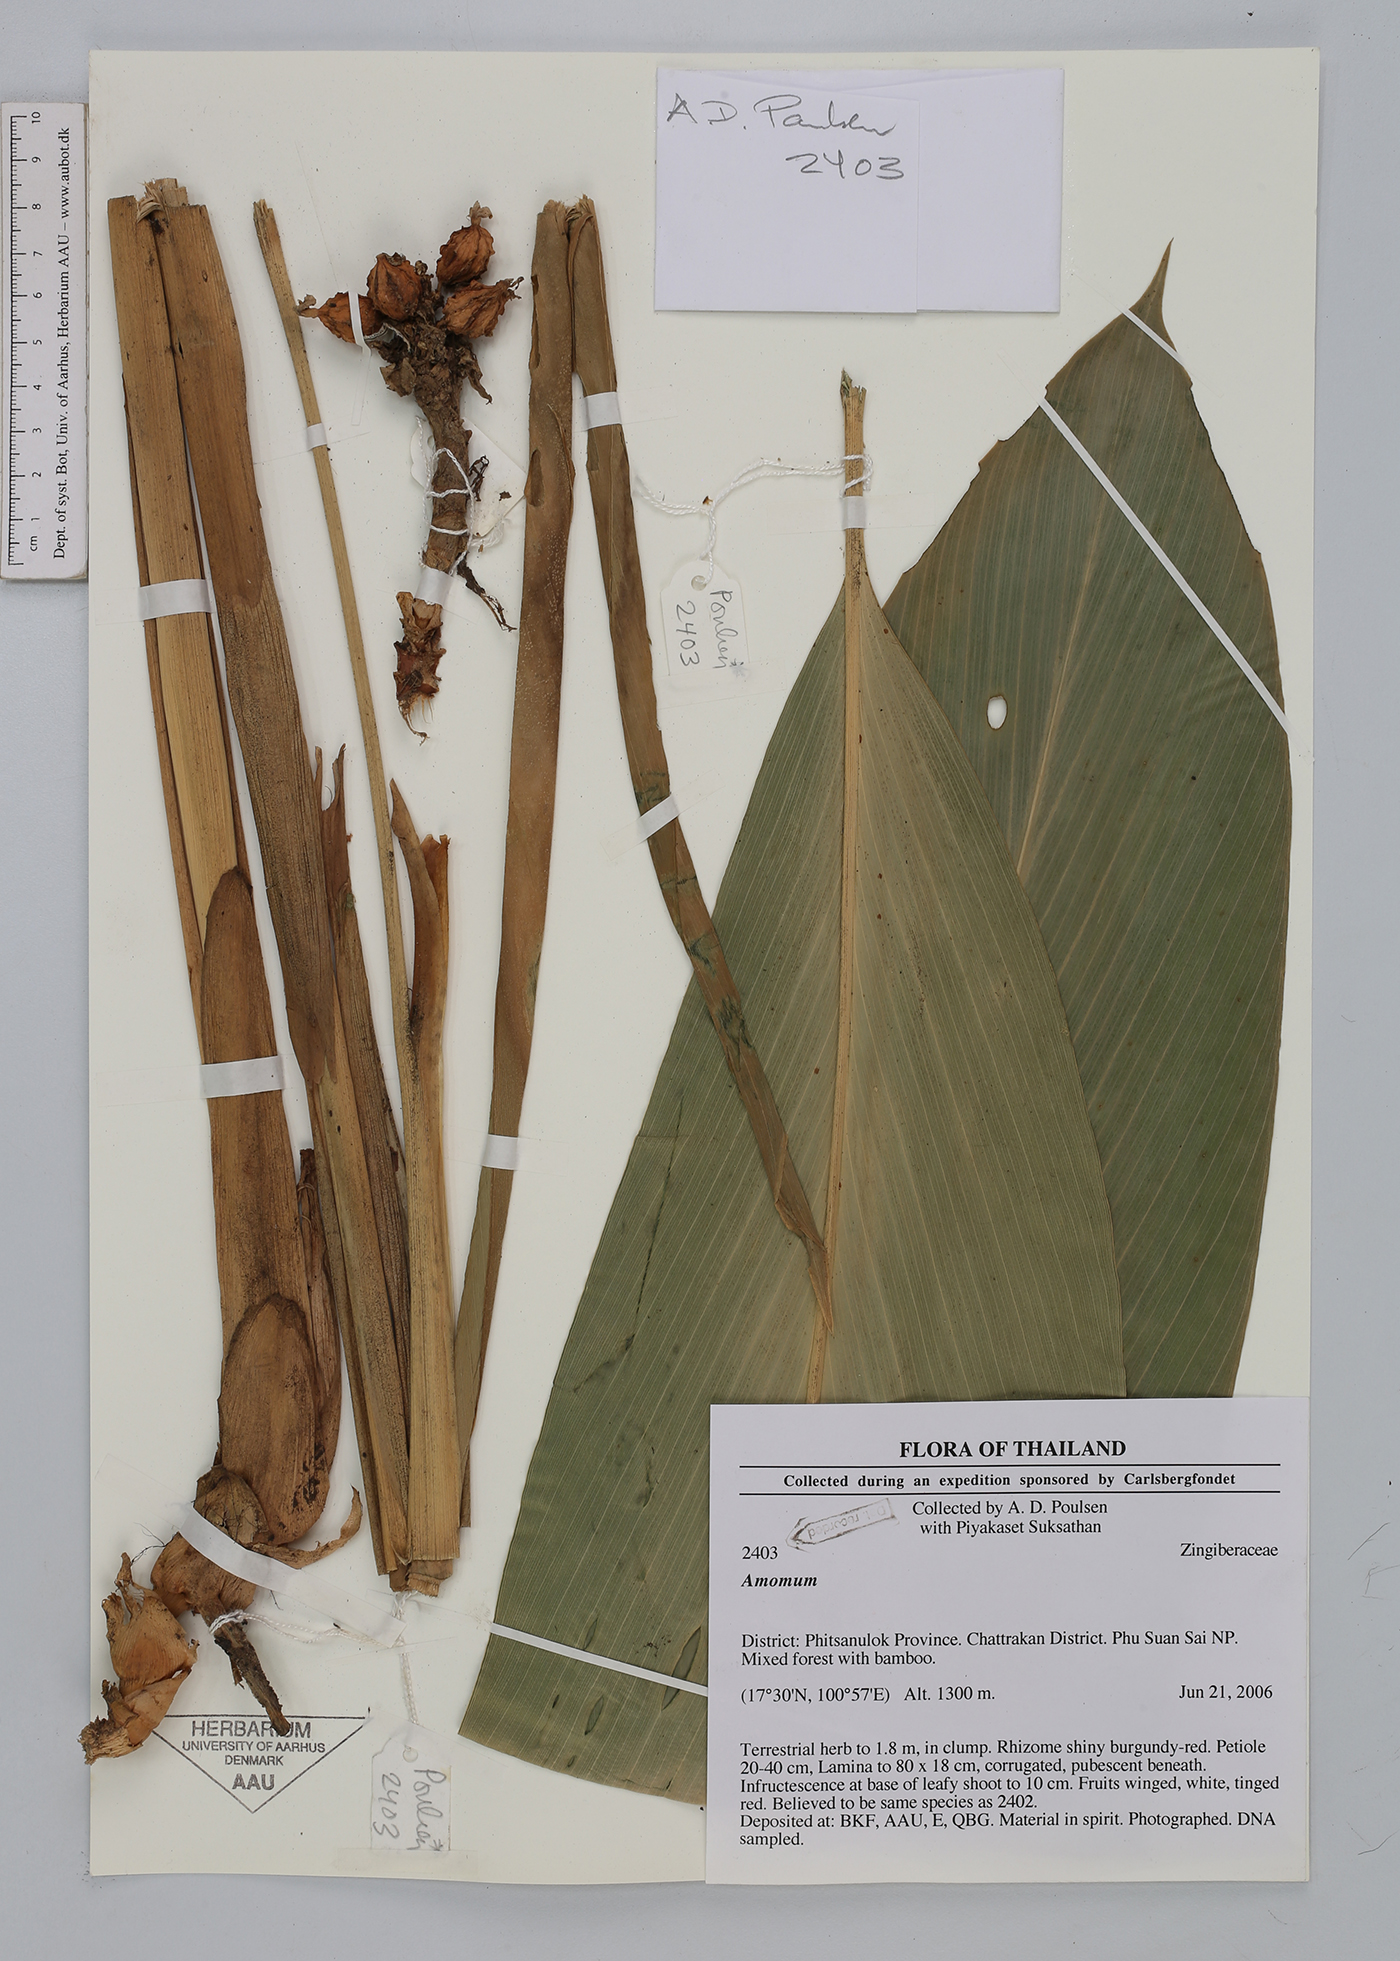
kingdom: Plantae
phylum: Tracheophyta
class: Liliopsida
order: Zingiberales
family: Zingiberaceae
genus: Amomum
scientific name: Amomum
